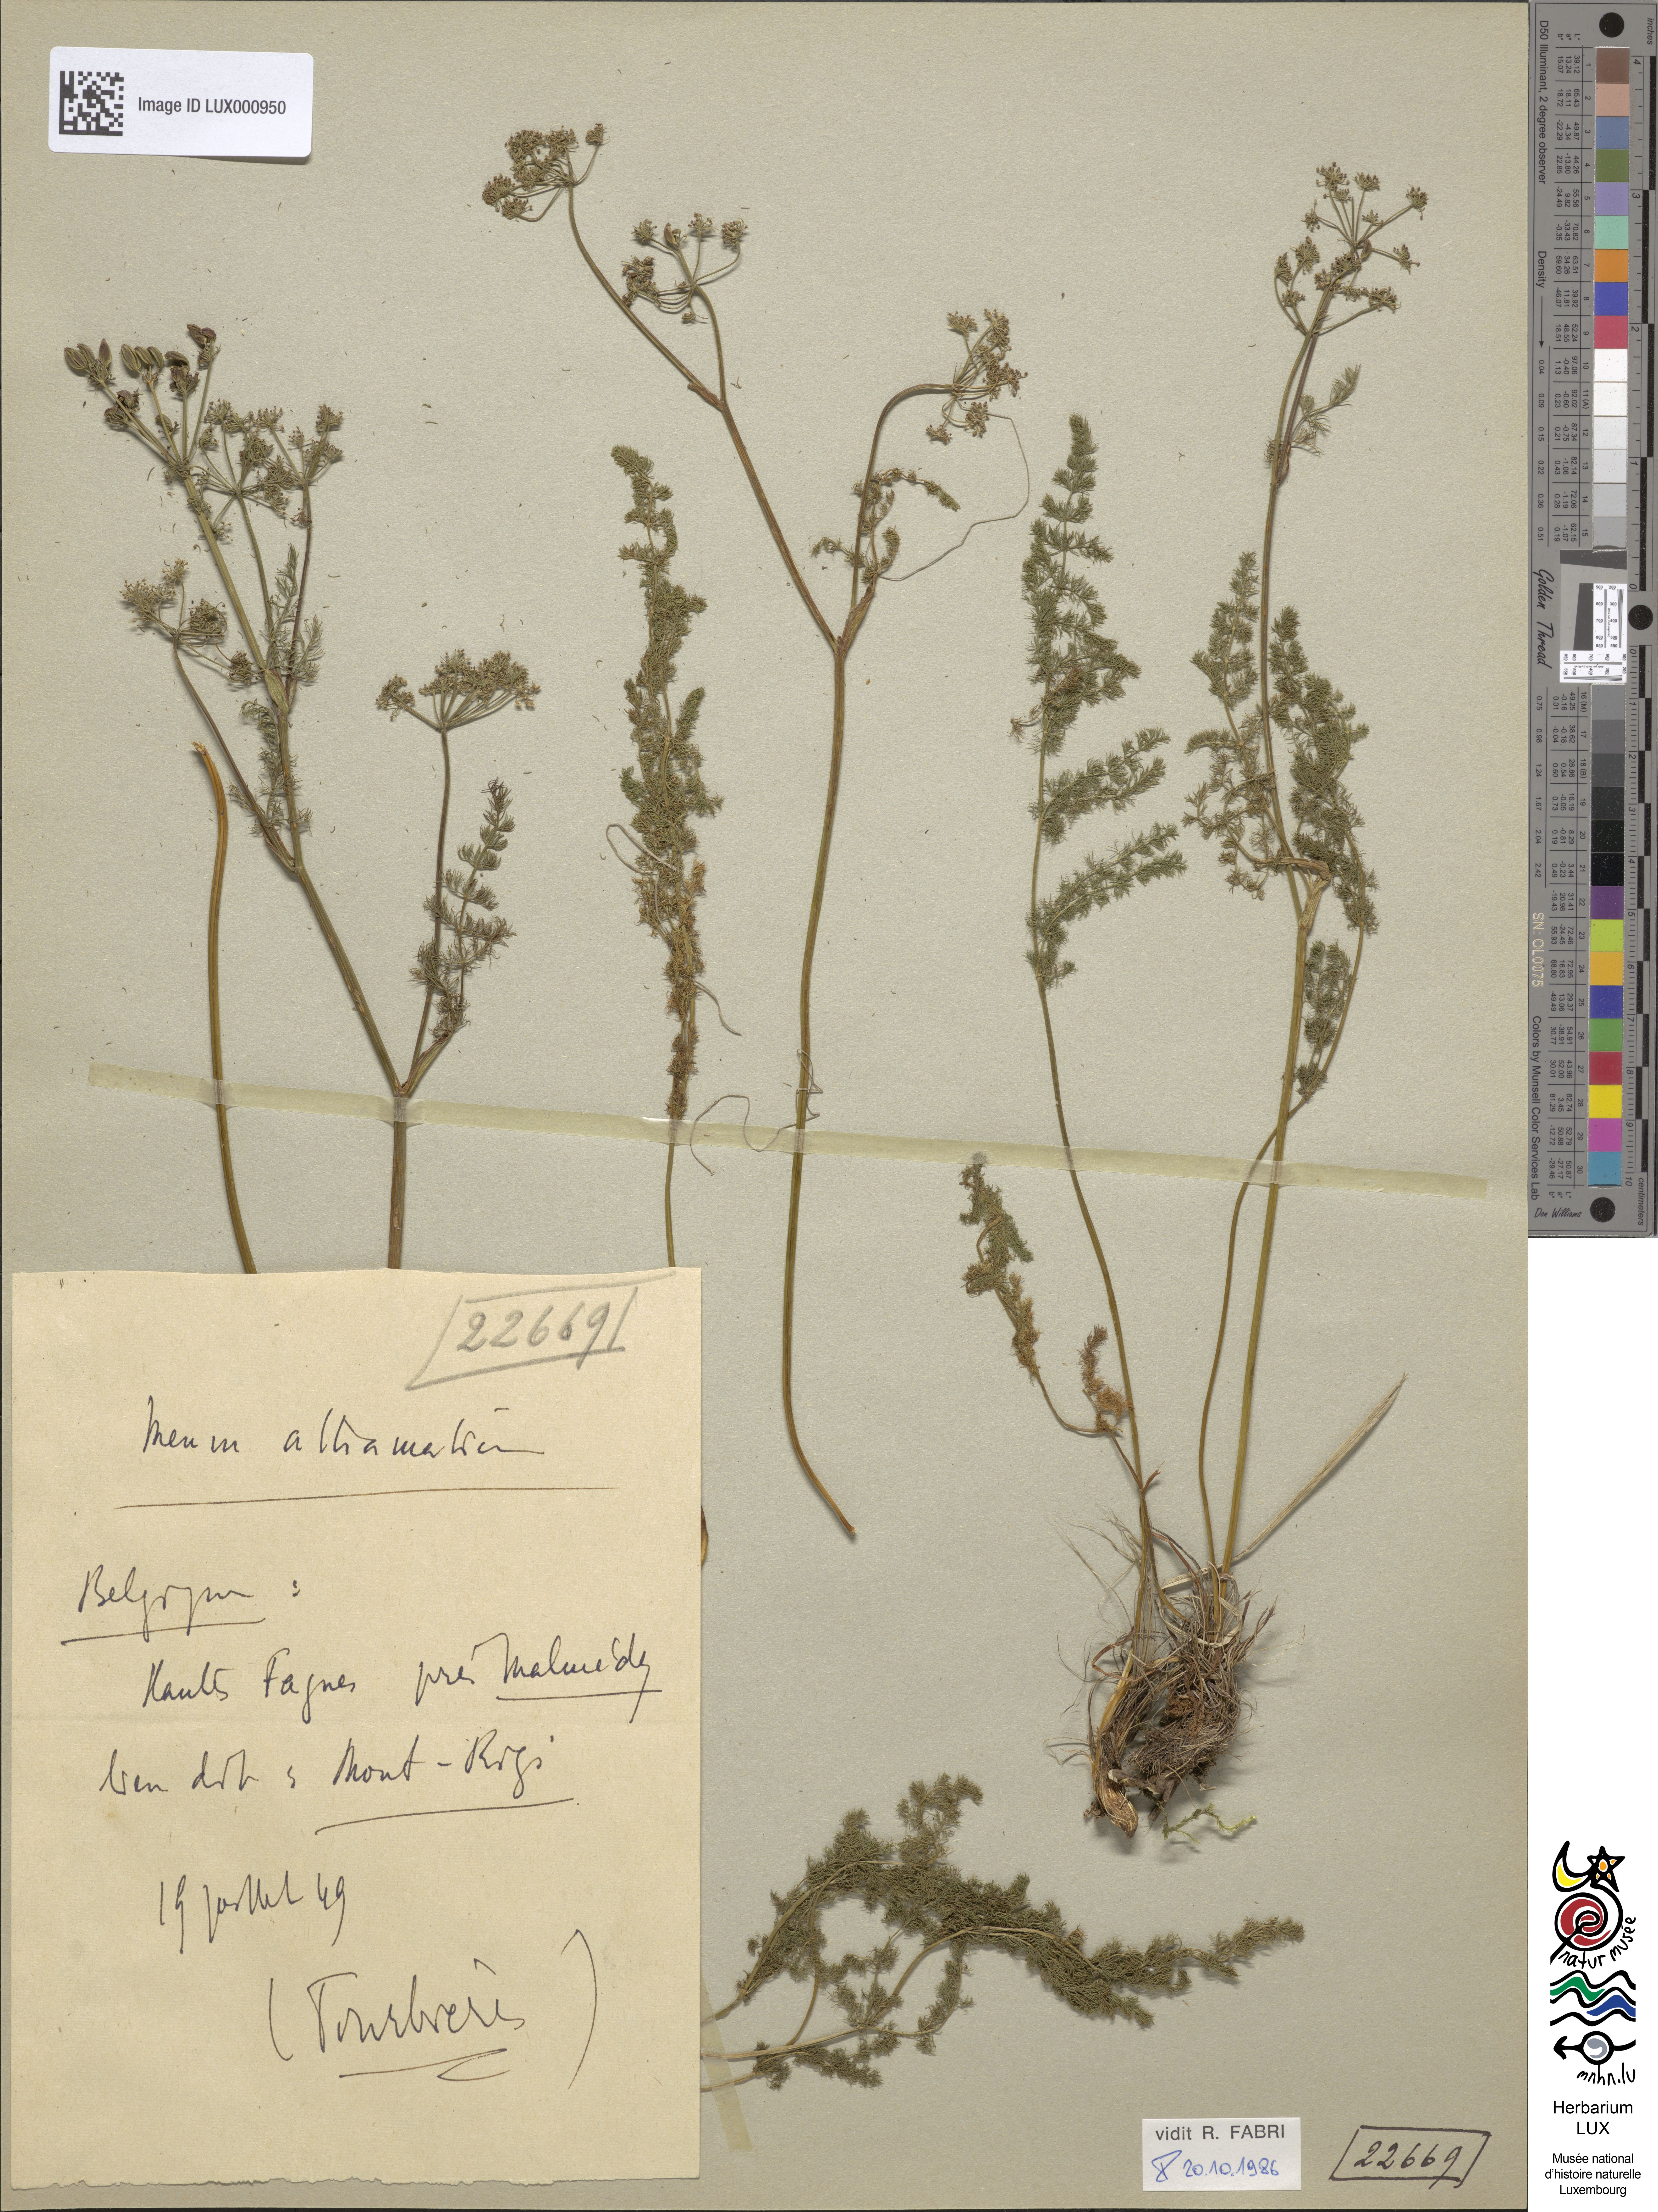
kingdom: Plantae
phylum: Tracheophyta
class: Magnoliopsida
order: Apiales
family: Apiaceae
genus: Meum
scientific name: Meum athamanticum
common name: Spignel
